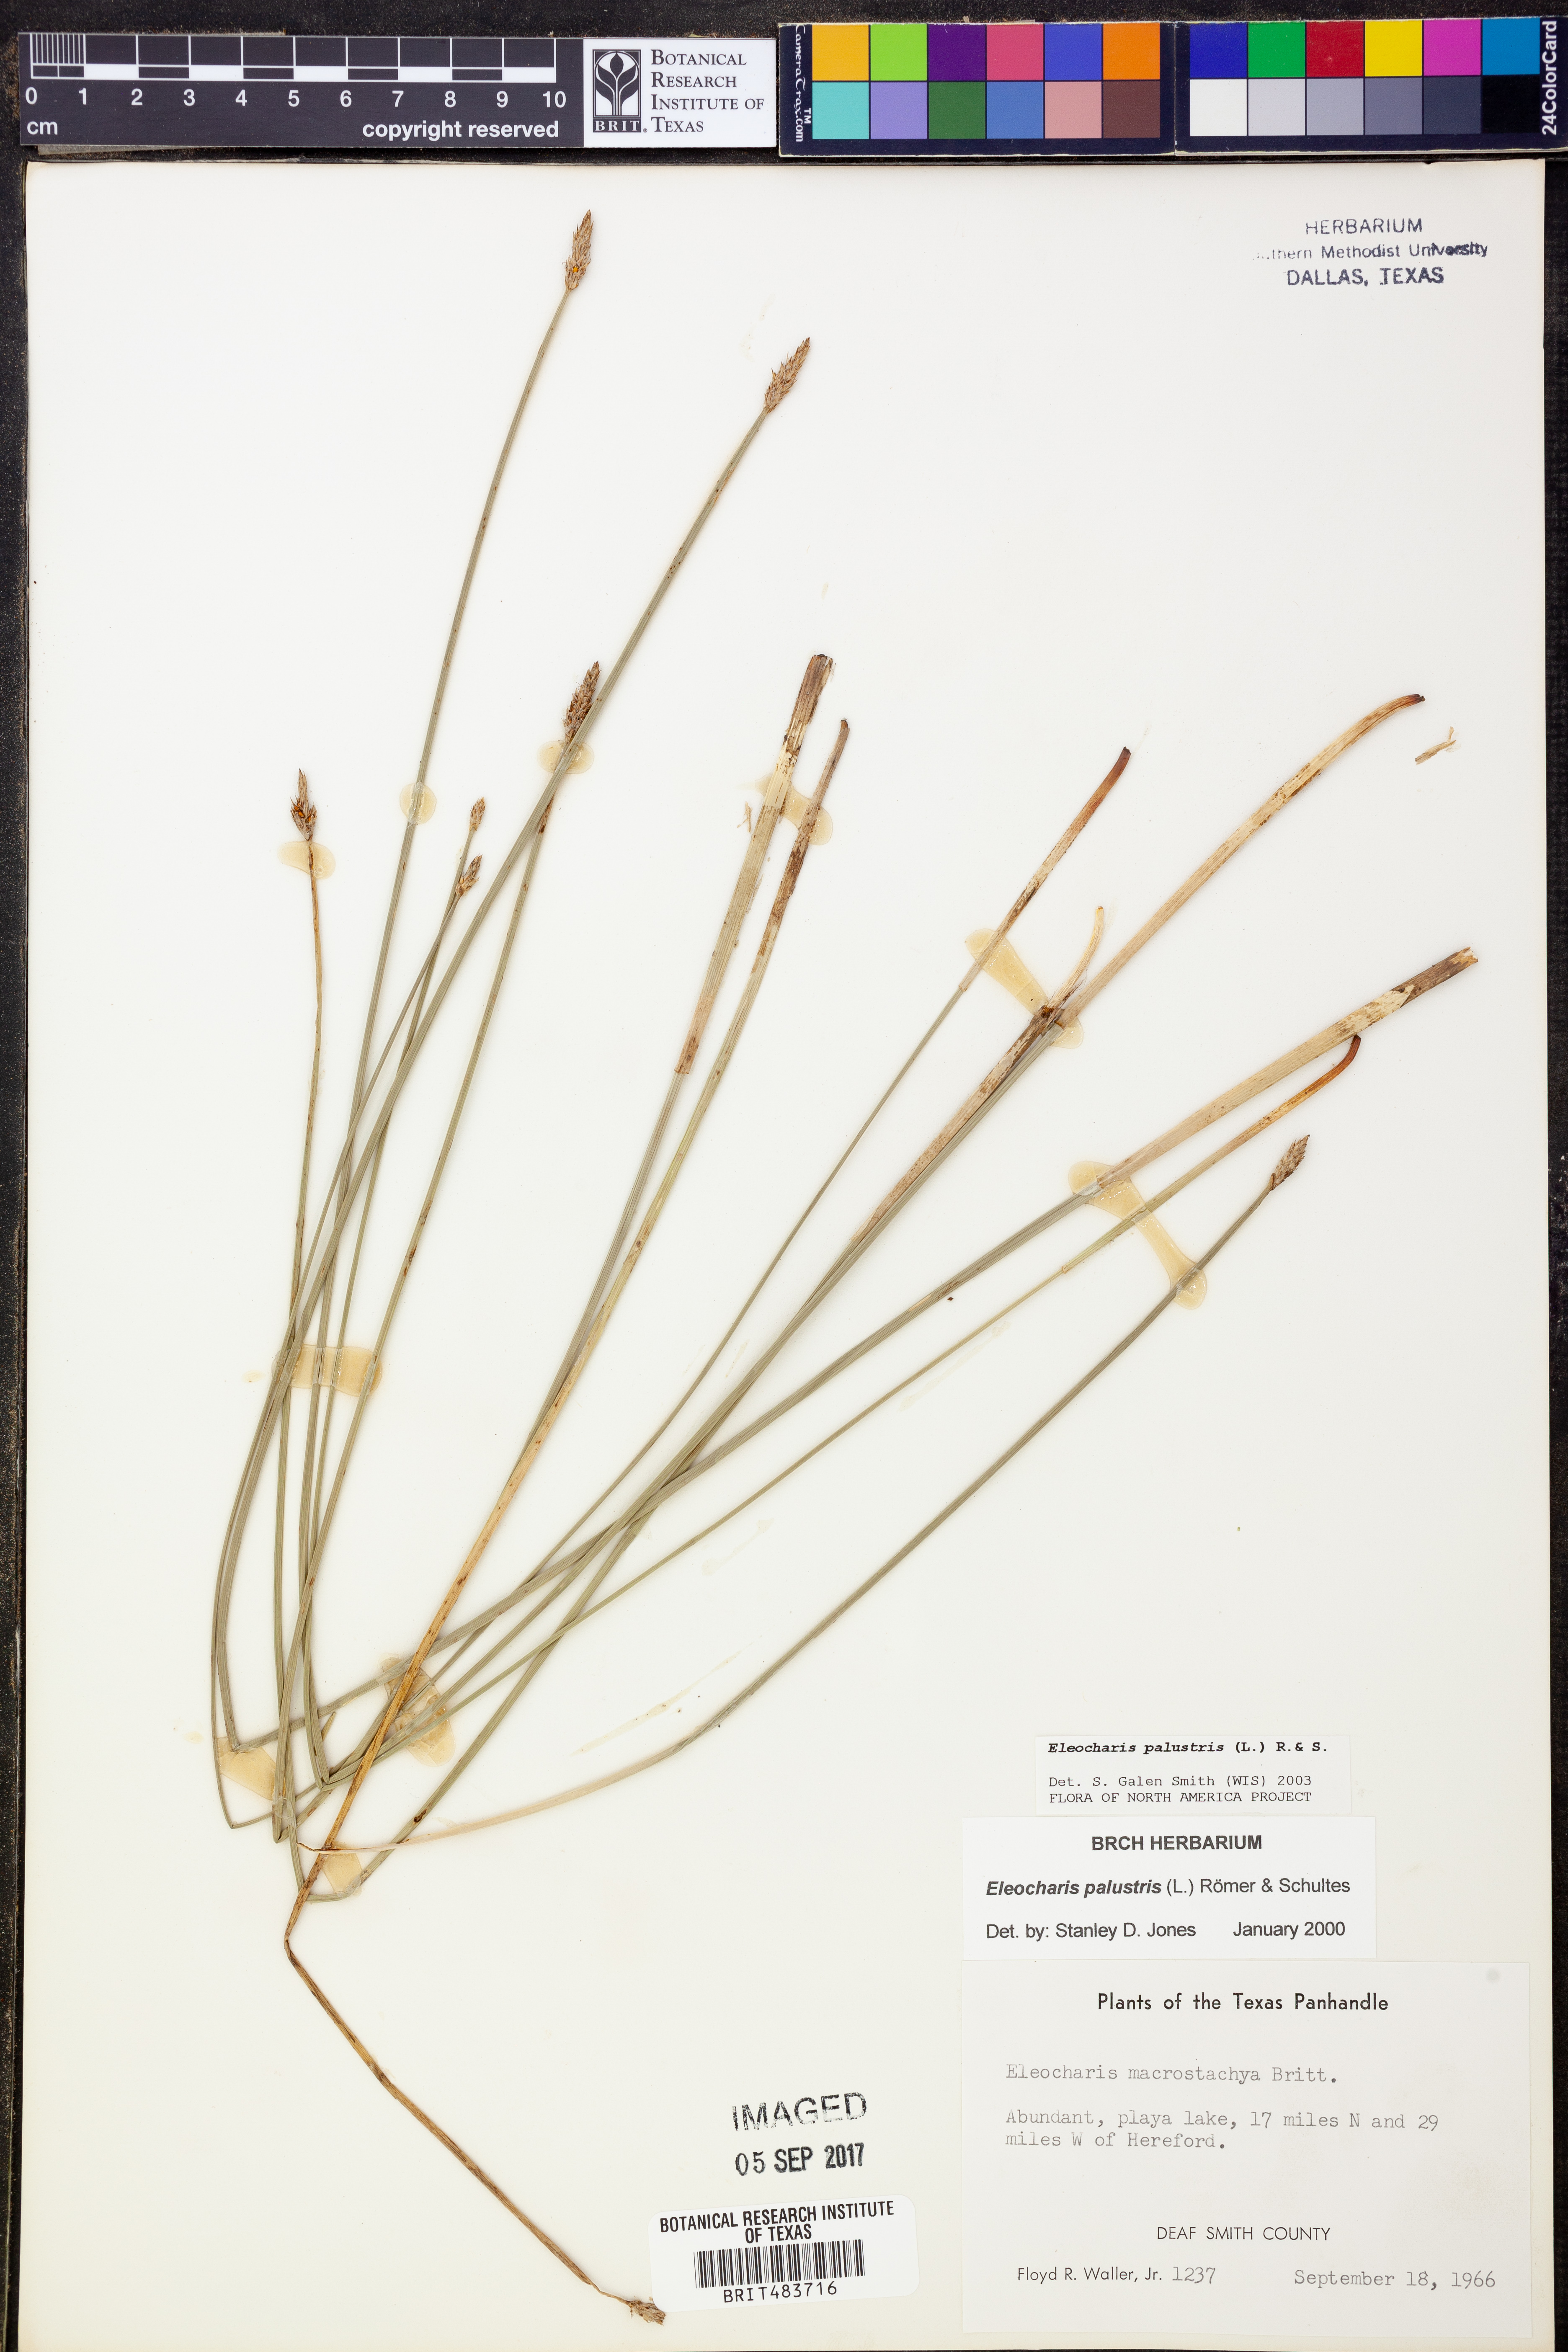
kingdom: Plantae
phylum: Tracheophyta
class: Liliopsida
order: Poales
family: Cyperaceae
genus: Eleocharis
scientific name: Eleocharis palustris
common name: Common spike-rush
